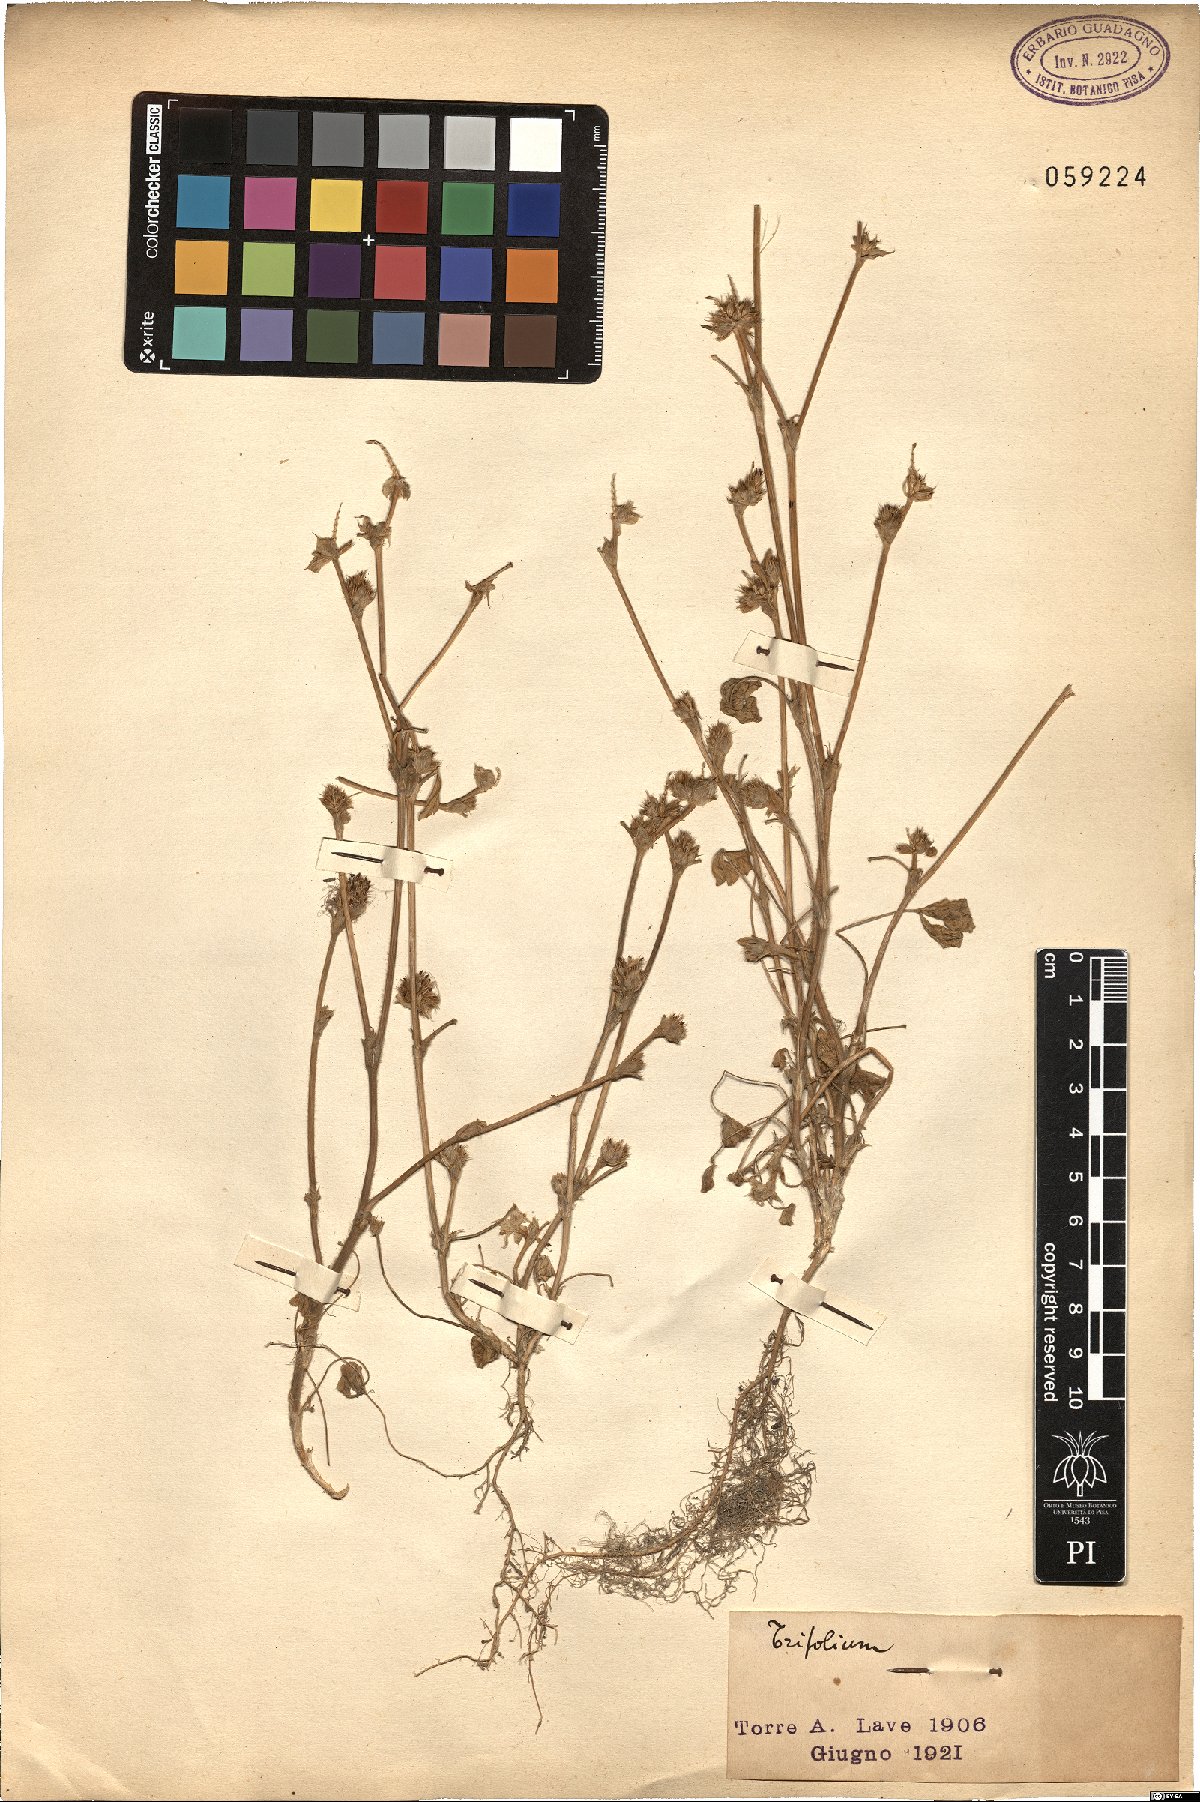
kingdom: Plantae
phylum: Tracheophyta
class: Magnoliopsida
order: Fabales
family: Fabaceae
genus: Trifolium
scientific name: Trifolium
